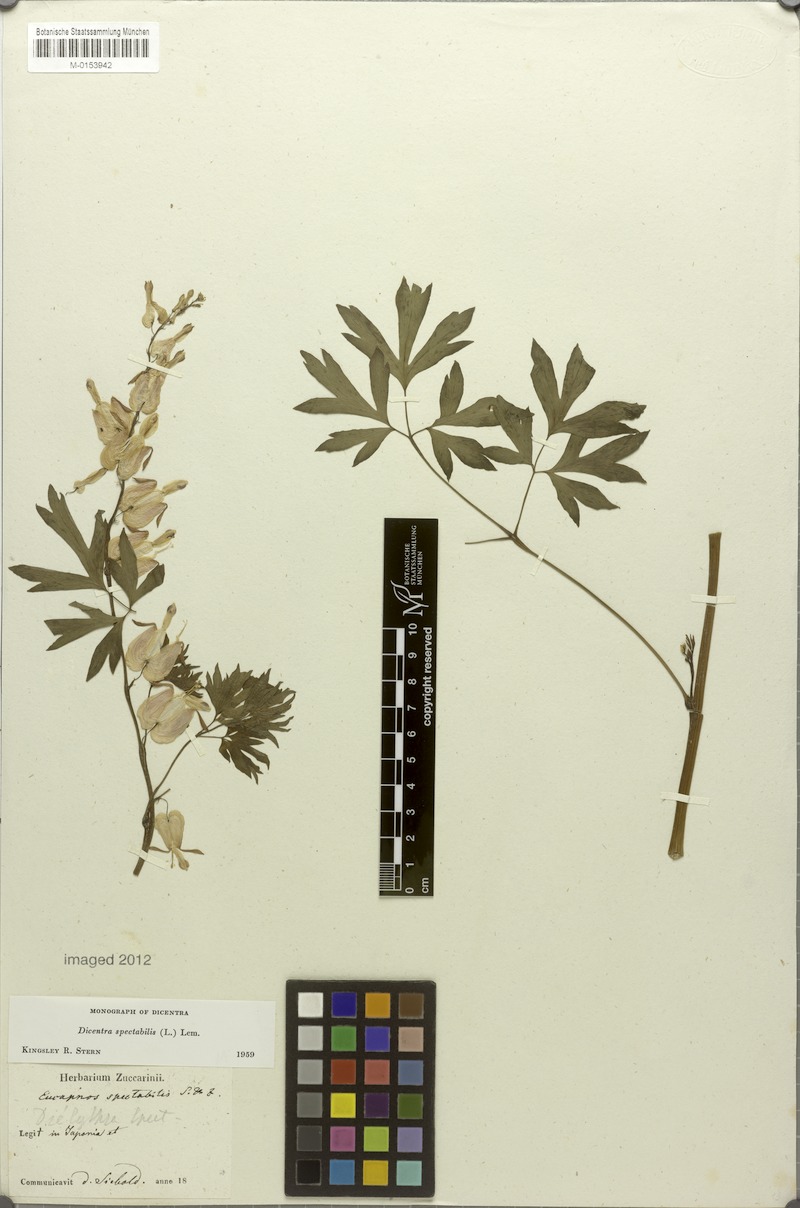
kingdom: Plantae
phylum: Tracheophyta
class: Magnoliopsida
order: Ranunculales
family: Papaveraceae
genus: Lamprocapnos
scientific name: Lamprocapnos spectabilis
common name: Asian bleeding-heart
